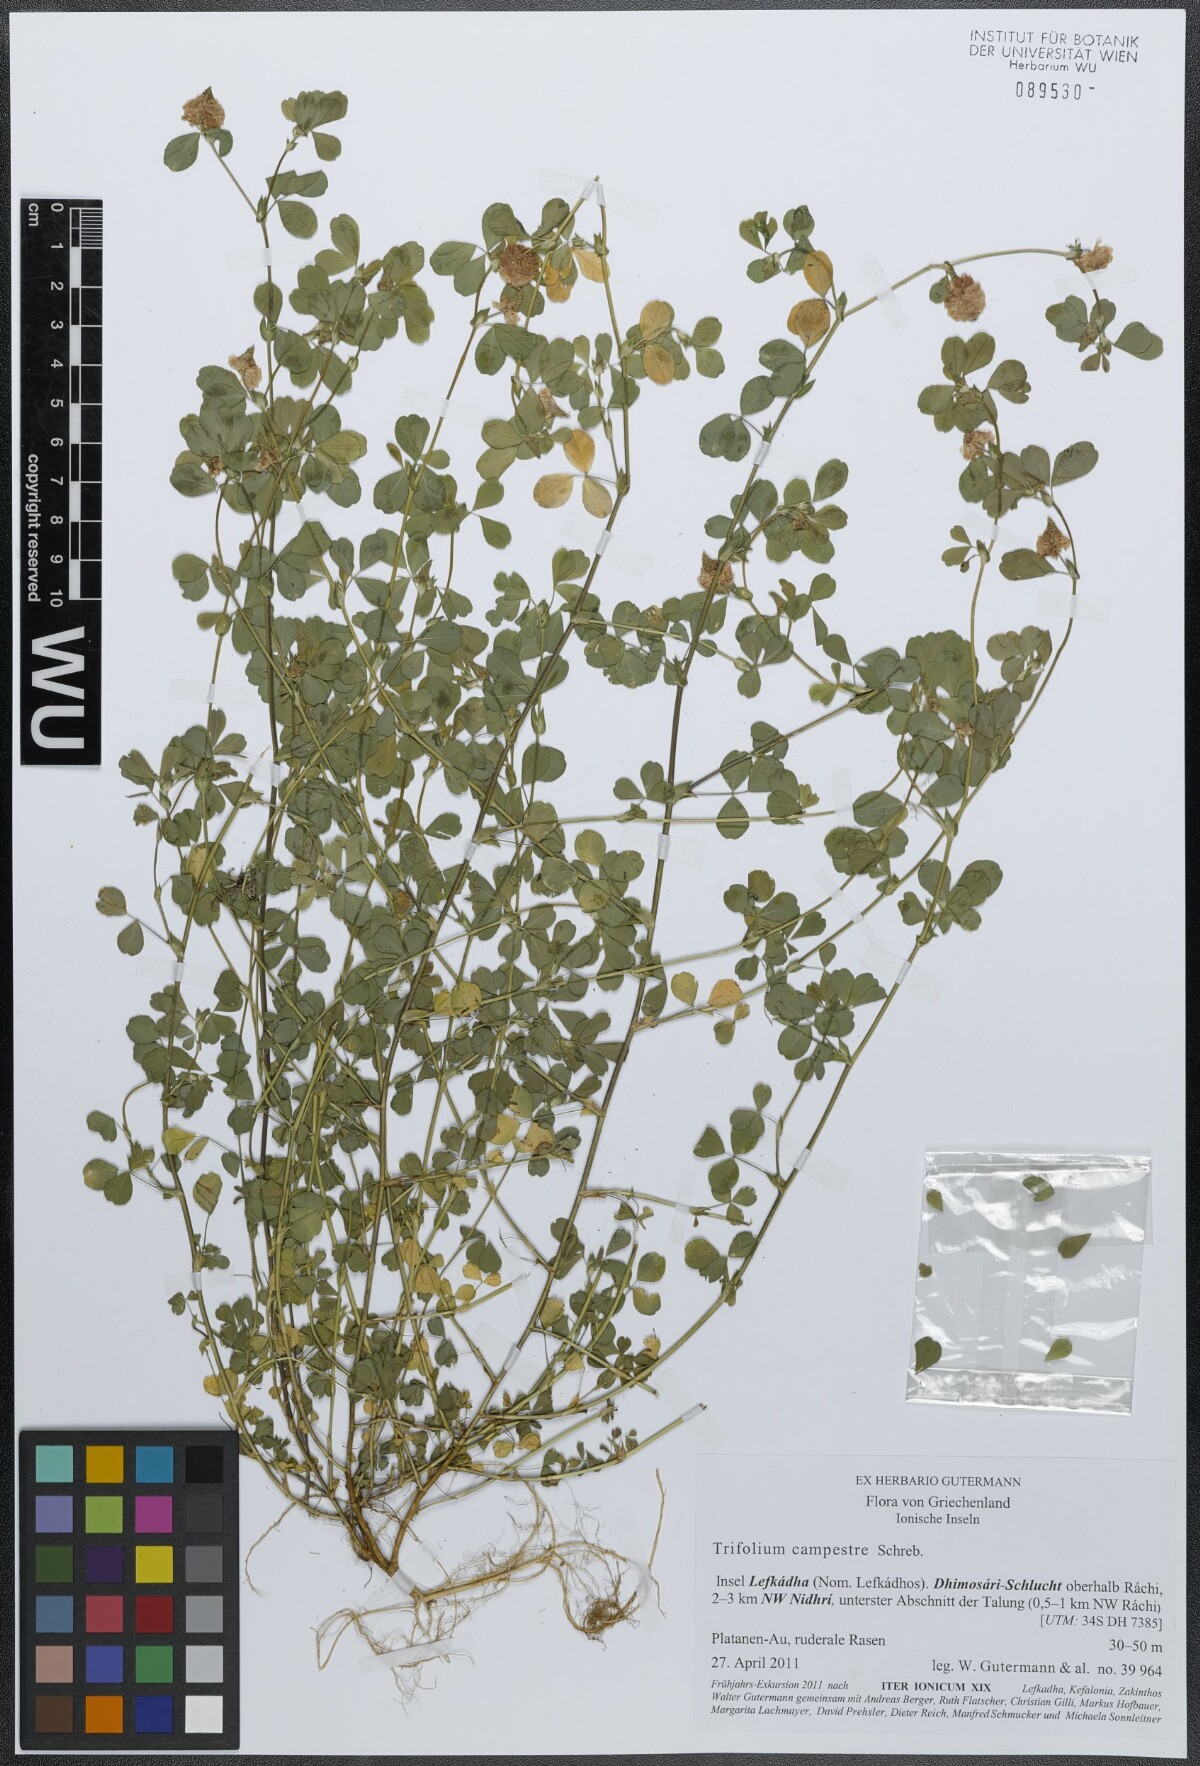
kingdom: Plantae
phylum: Tracheophyta
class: Magnoliopsida
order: Fabales
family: Fabaceae
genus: Trifolium
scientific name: Trifolium campestre
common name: Field clover
